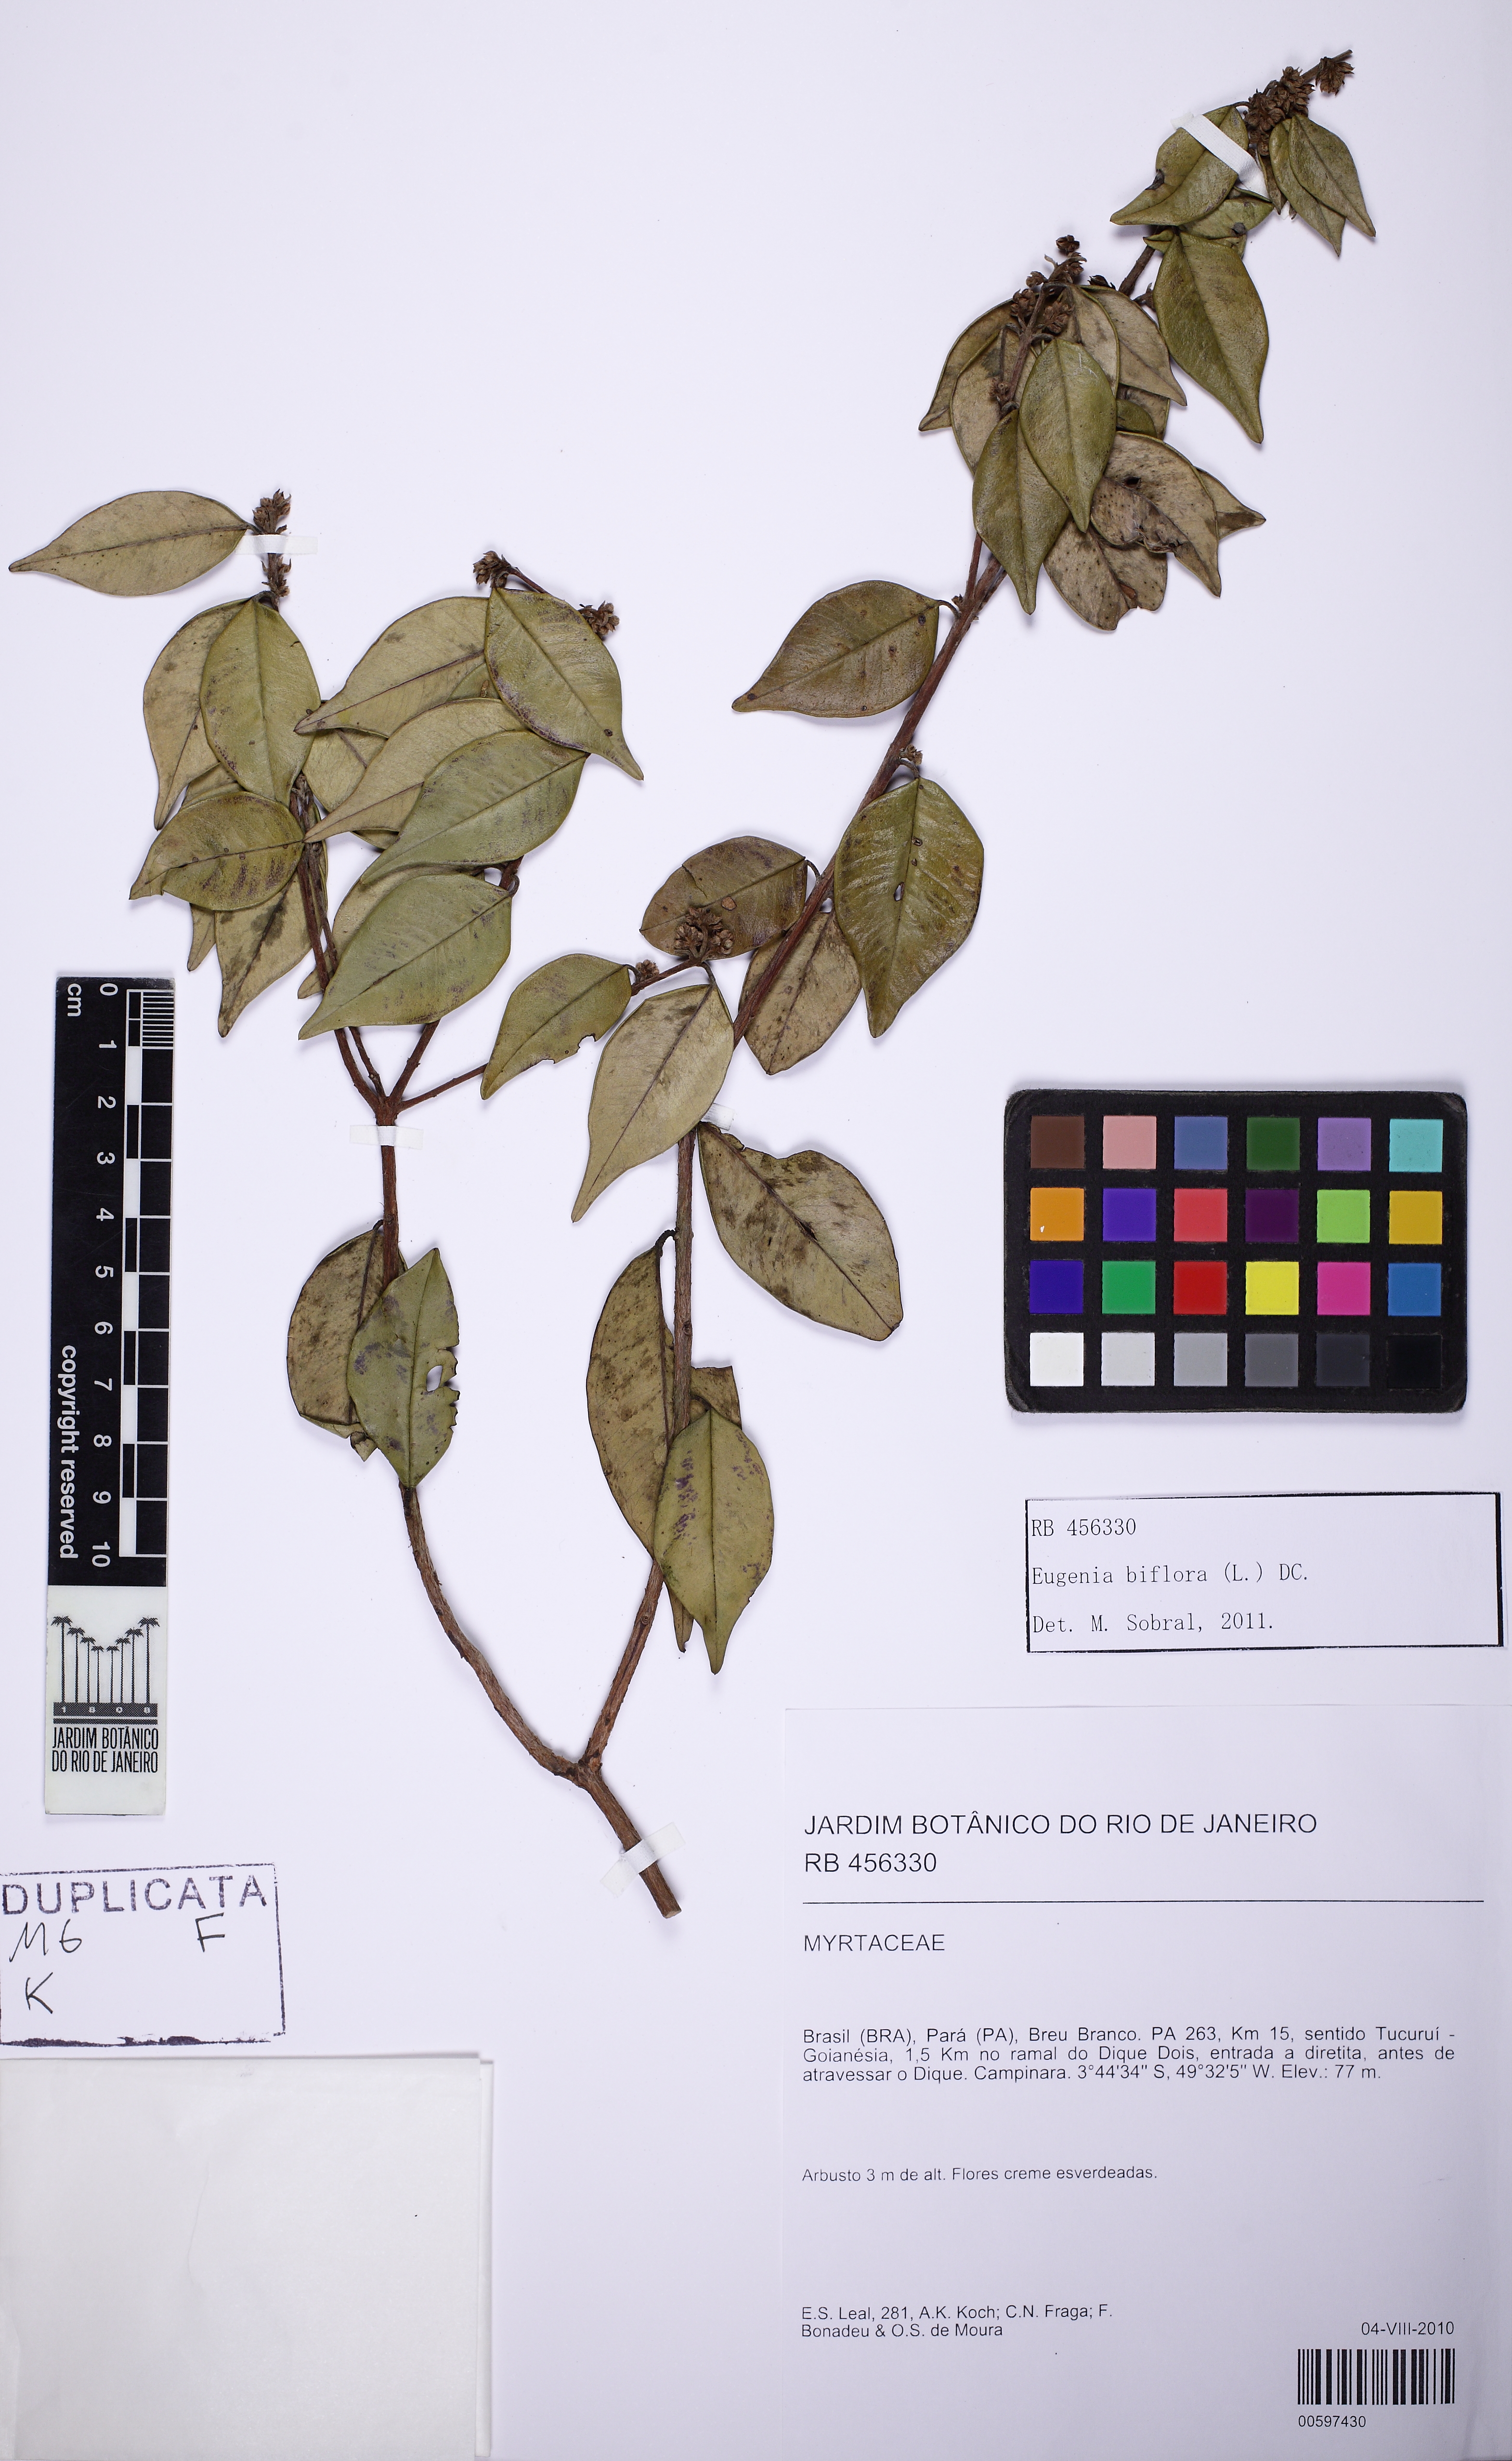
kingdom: Plantae
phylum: Tracheophyta
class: Magnoliopsida
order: Myrtales
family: Myrtaceae
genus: Eugenia
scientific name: Eugenia biflora
